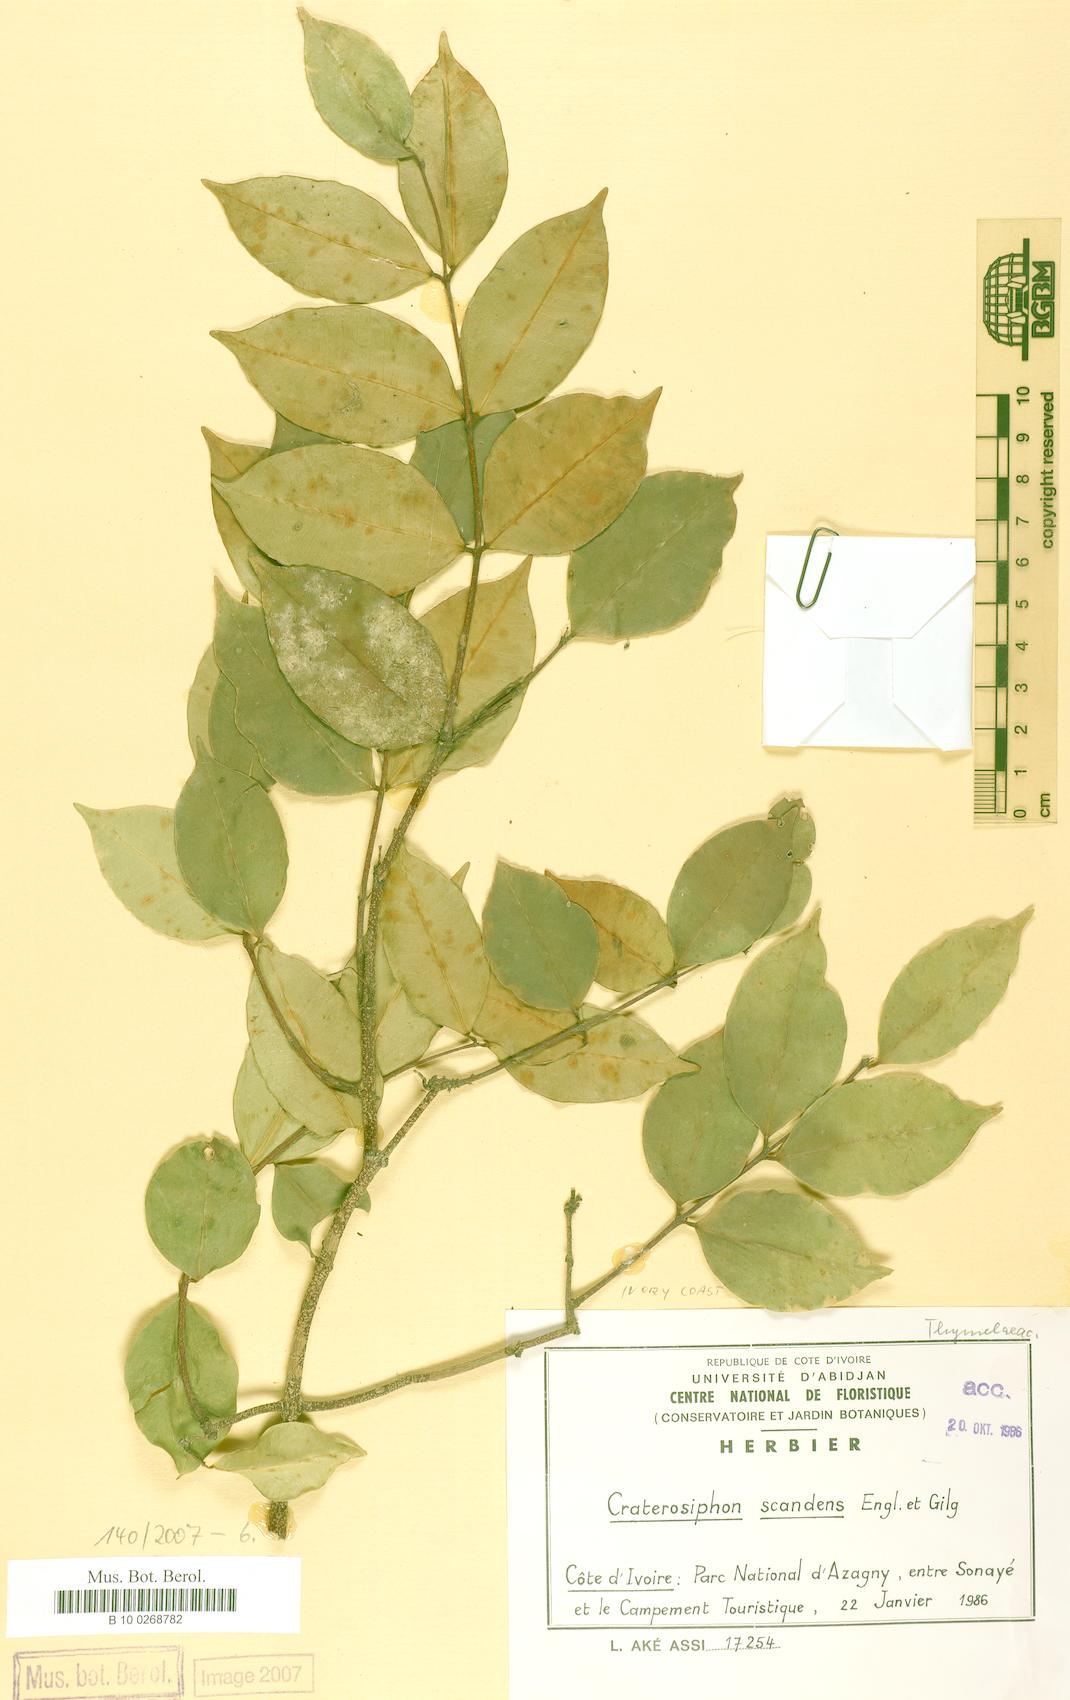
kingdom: Plantae
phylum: Tracheophyta
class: Magnoliopsida
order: Malvales
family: Thymelaeaceae
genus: Craterosiphon
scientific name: Craterosiphon scandens
